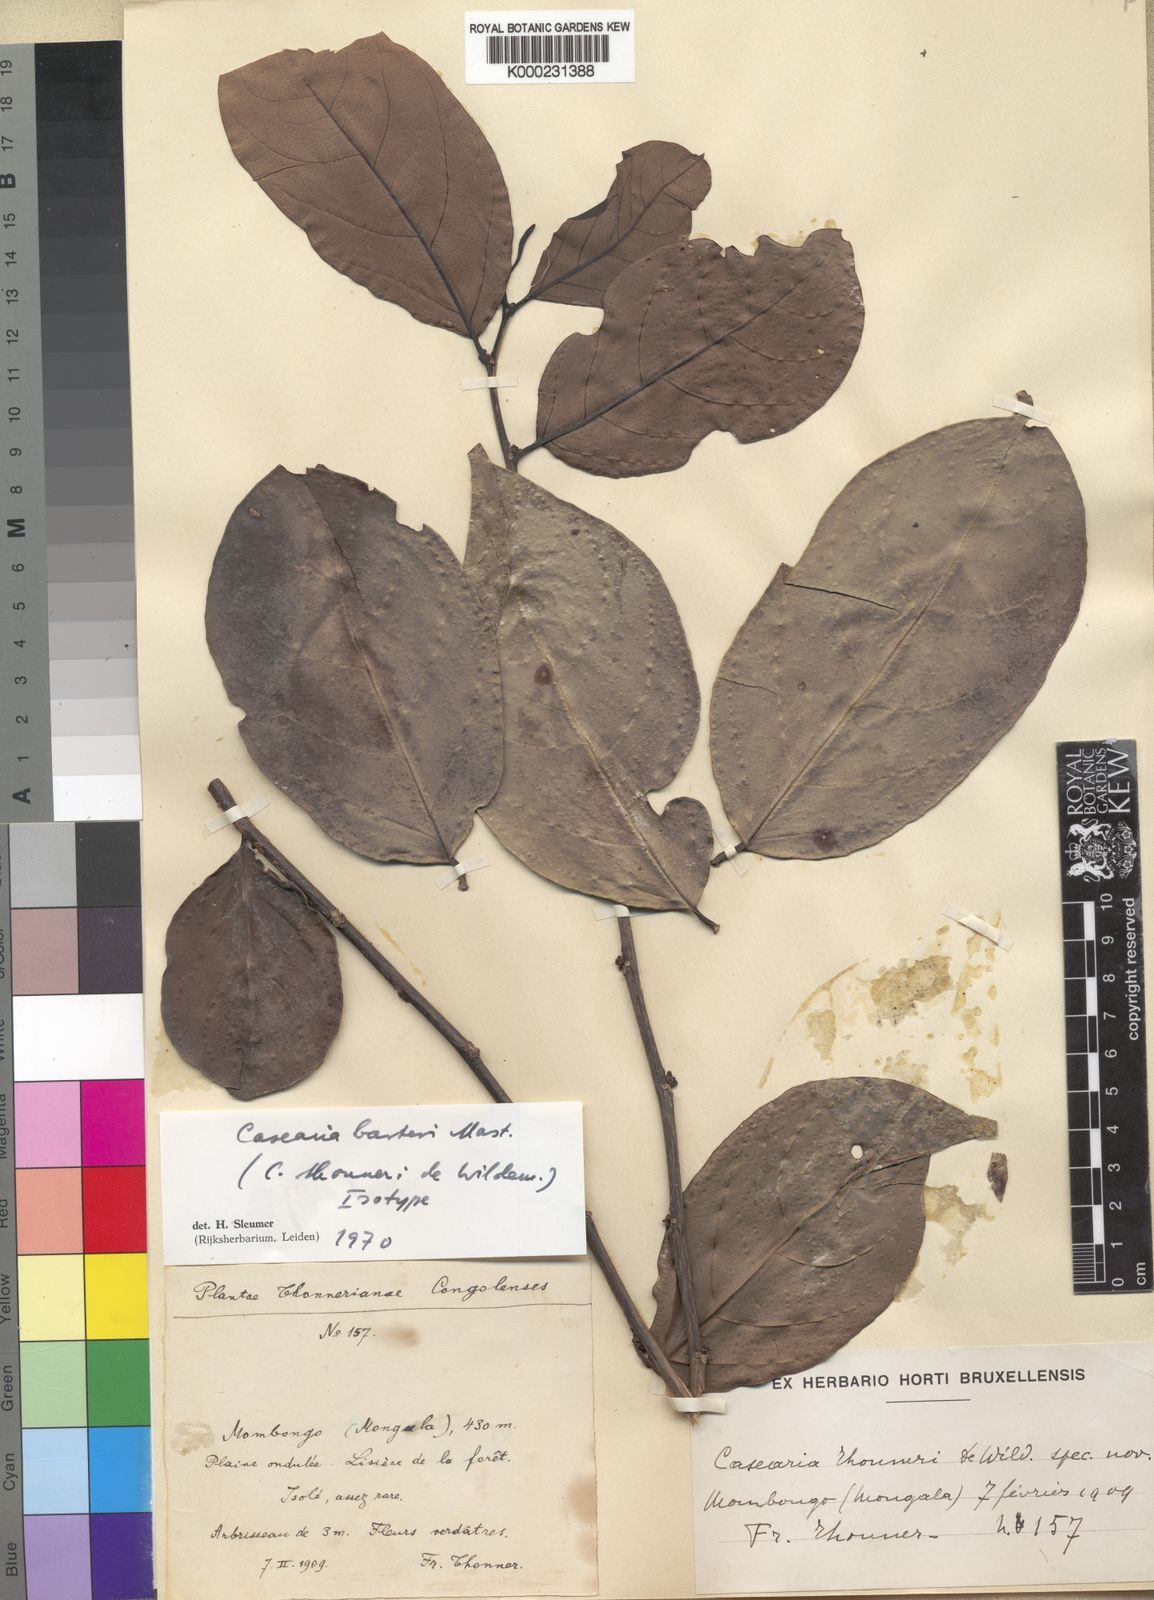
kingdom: Plantae
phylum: Tracheophyta
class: Magnoliopsida
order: Malpighiales
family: Salicaceae
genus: Casearia
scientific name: Casearia barteri
